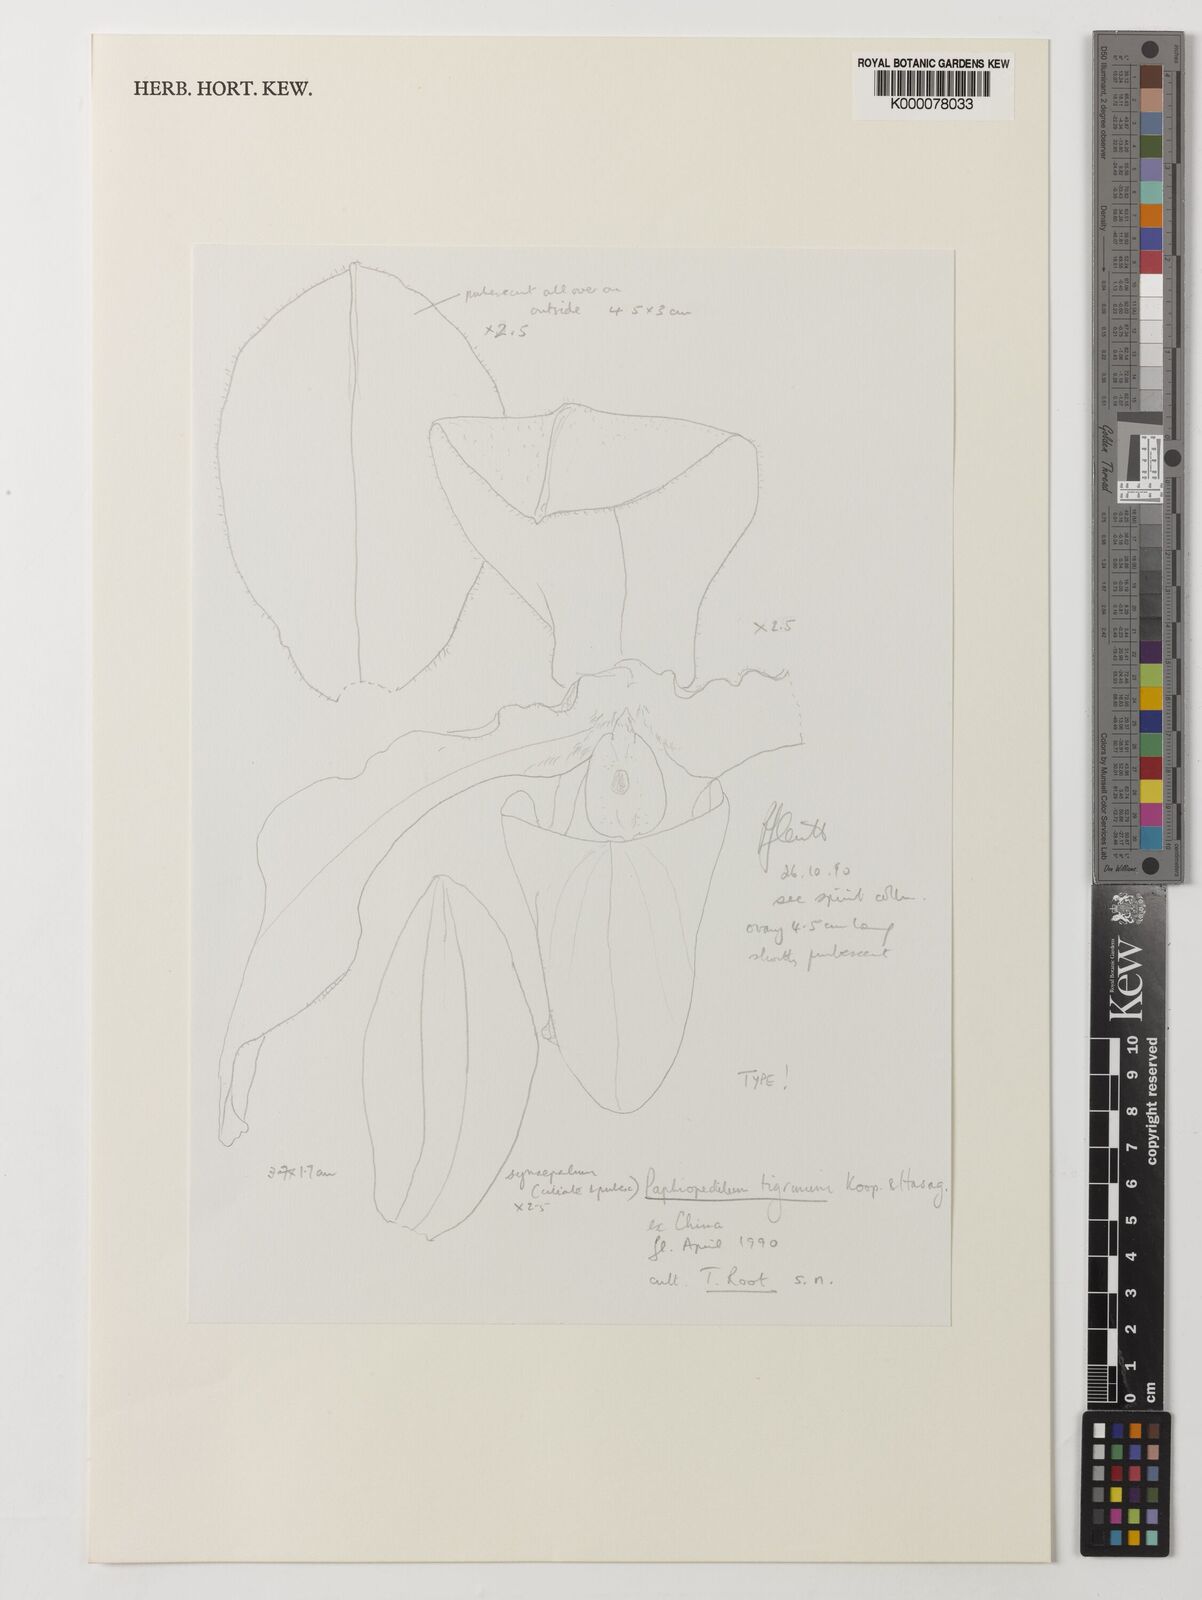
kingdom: Plantae
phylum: Tracheophyta
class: Liliopsida
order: Asparagales
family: Orchidaceae
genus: Paphiopedilum
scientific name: Paphiopedilum tigrinum
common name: Tiger striped paphiopedilum
